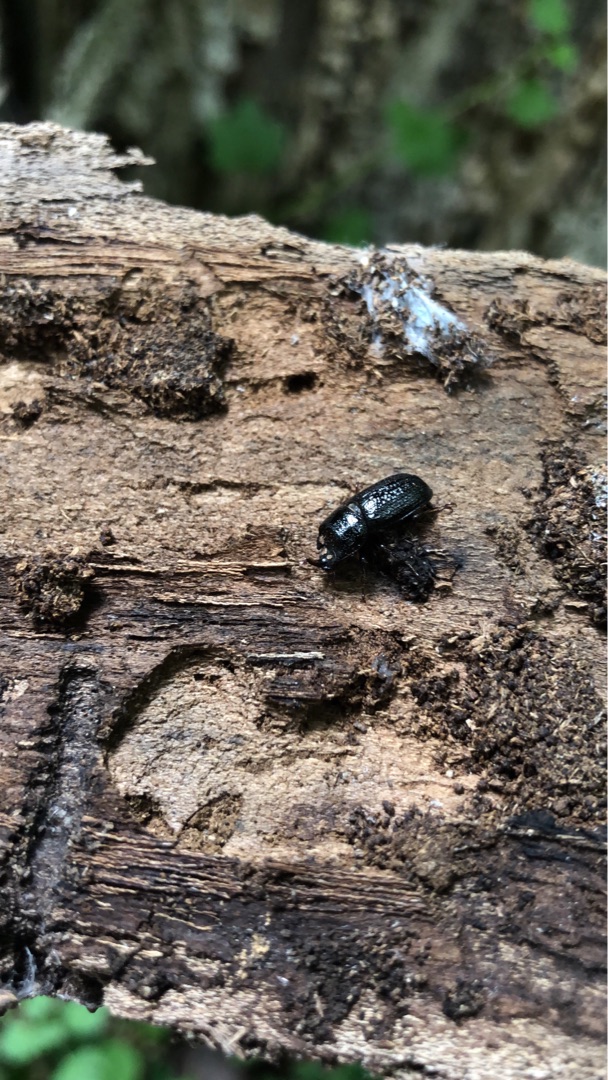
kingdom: Animalia
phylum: Arthropoda
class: Insecta
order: Coleoptera
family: Lucanidae
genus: Sinodendron
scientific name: Sinodendron cylindricum
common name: Valsehjort
